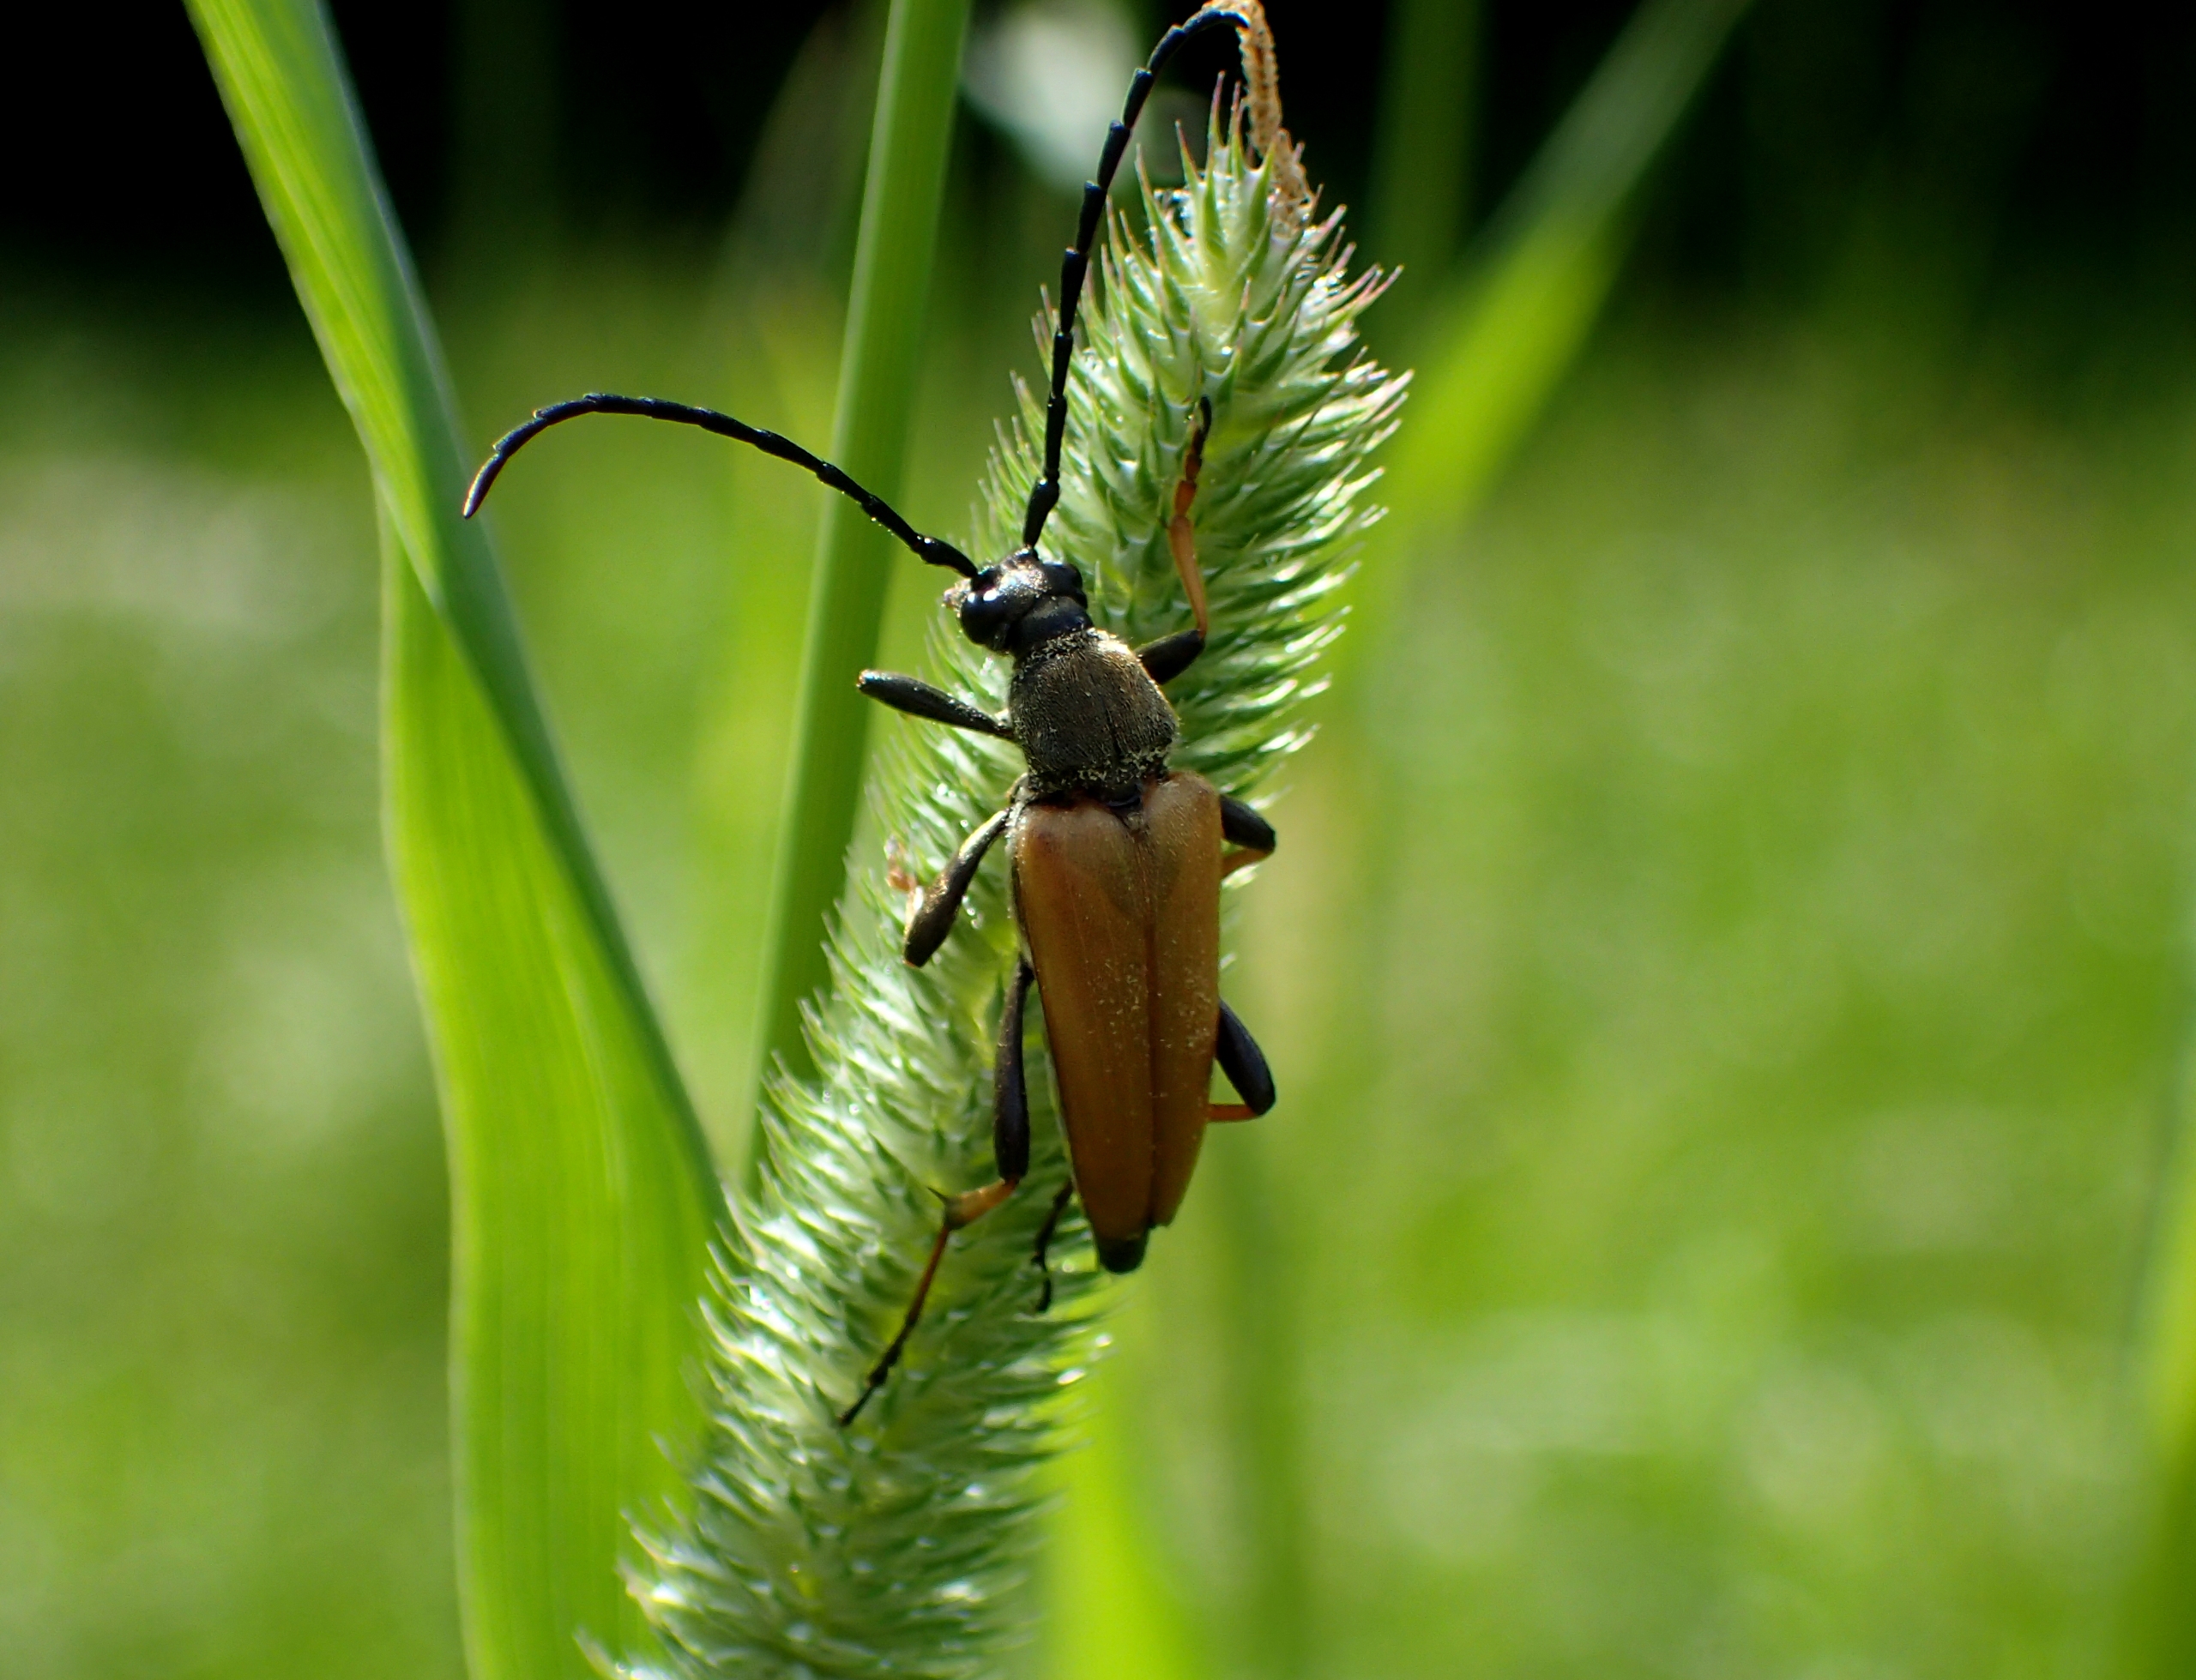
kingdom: Animalia
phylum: Arthropoda
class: Insecta
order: Coleoptera
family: Cerambycidae
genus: Stictoleptura
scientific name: Stictoleptura rubra
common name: Rød blomsterbuk
